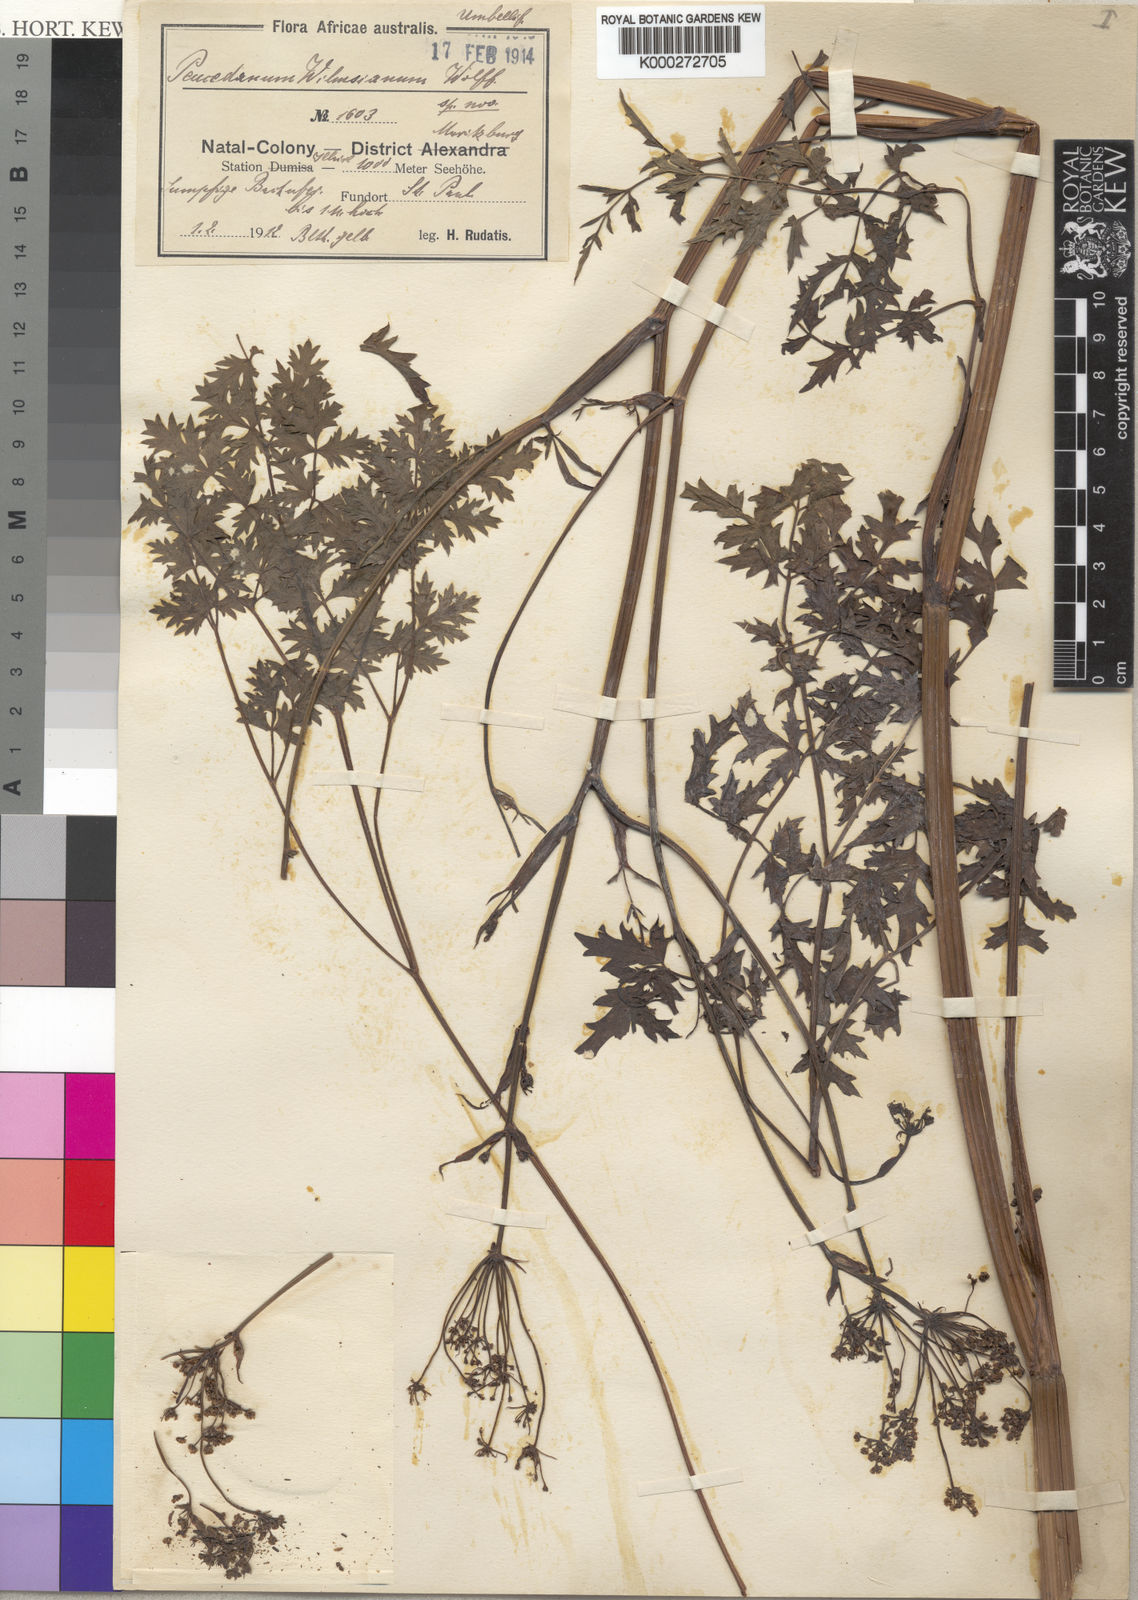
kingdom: Plantae
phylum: Tracheophyta
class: Magnoliopsida
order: Apiales
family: Apiaceae
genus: Anethum
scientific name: Anethum
